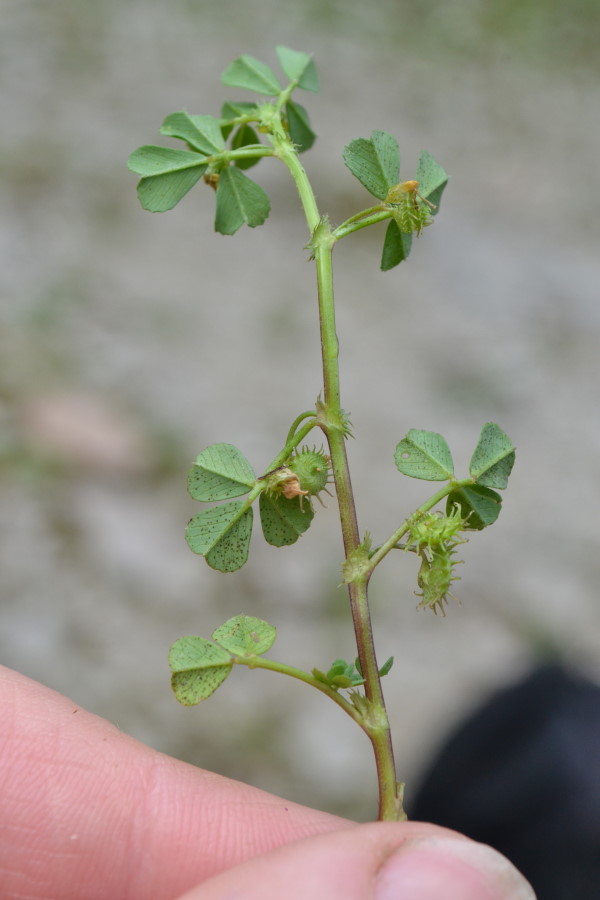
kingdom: Plantae
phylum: Tracheophyta
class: Magnoliopsida
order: Fabales
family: Fabaceae
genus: Medicago
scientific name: Medicago
